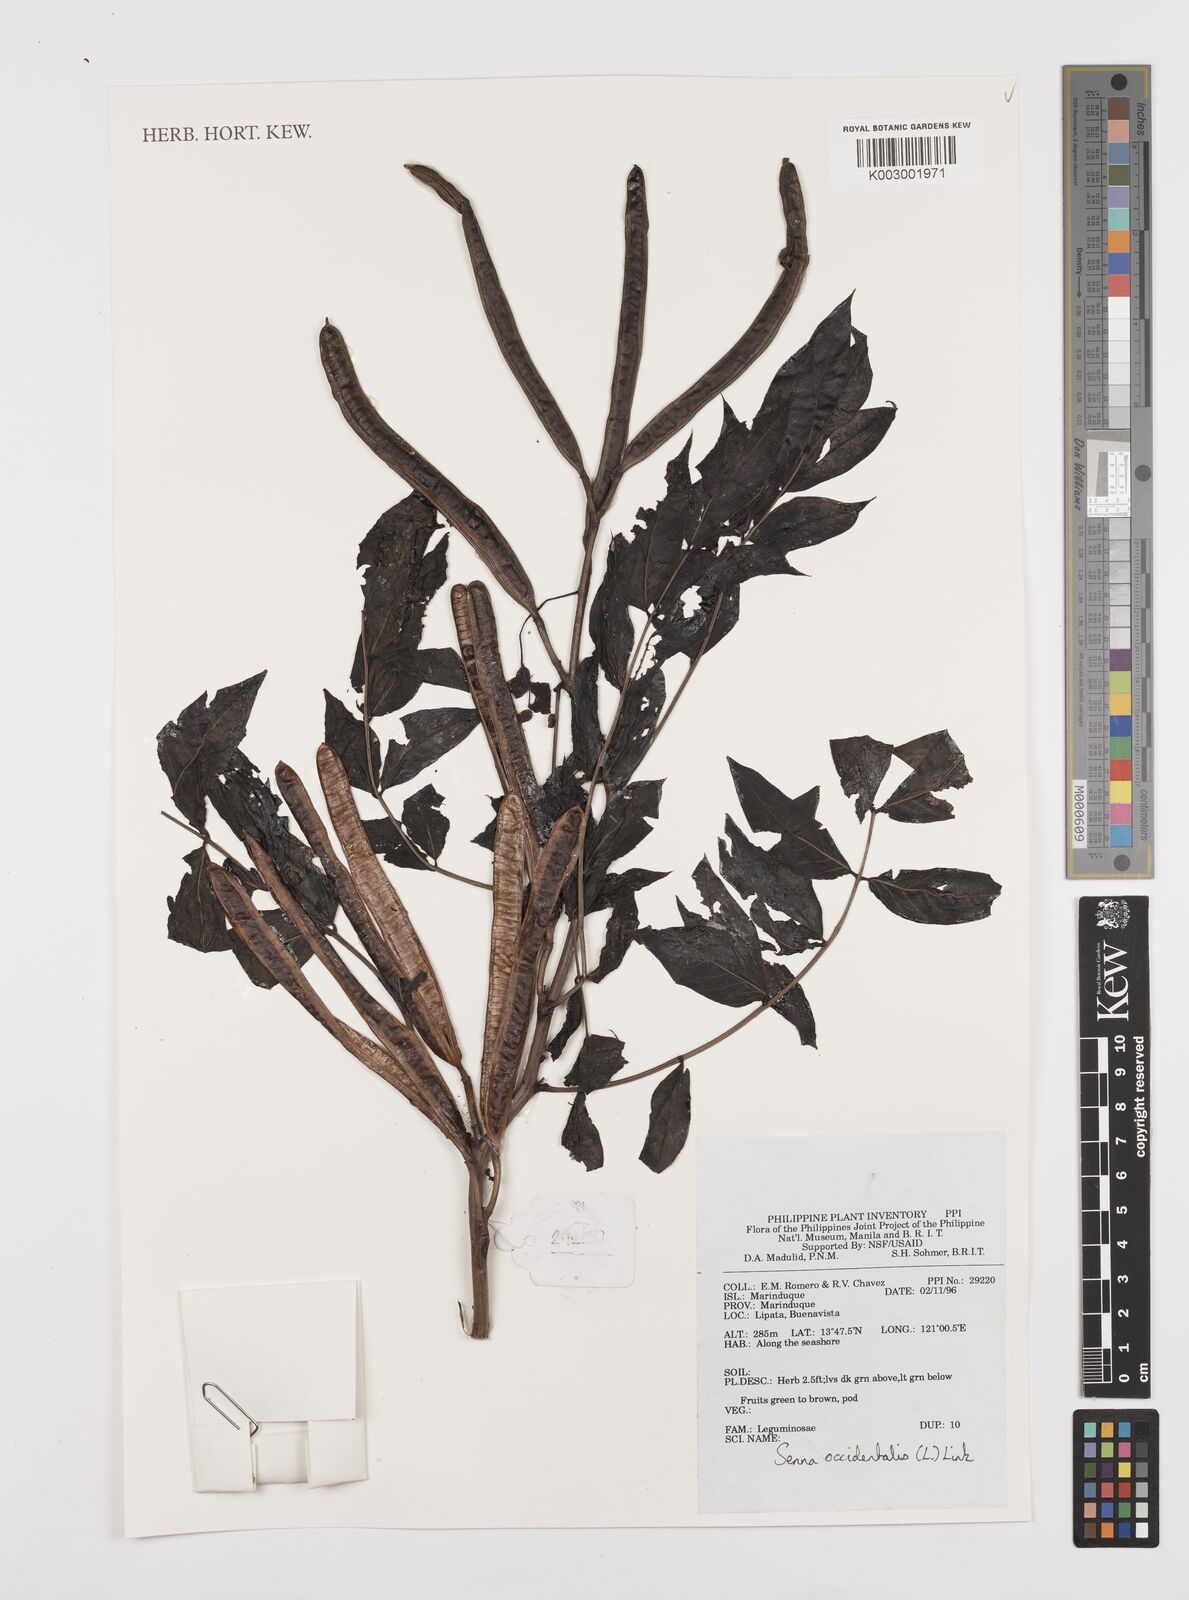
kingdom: Plantae
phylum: Tracheophyta
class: Magnoliopsida
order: Fabales
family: Fabaceae
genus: Senna
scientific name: Senna occidentalis
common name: Septicweed
